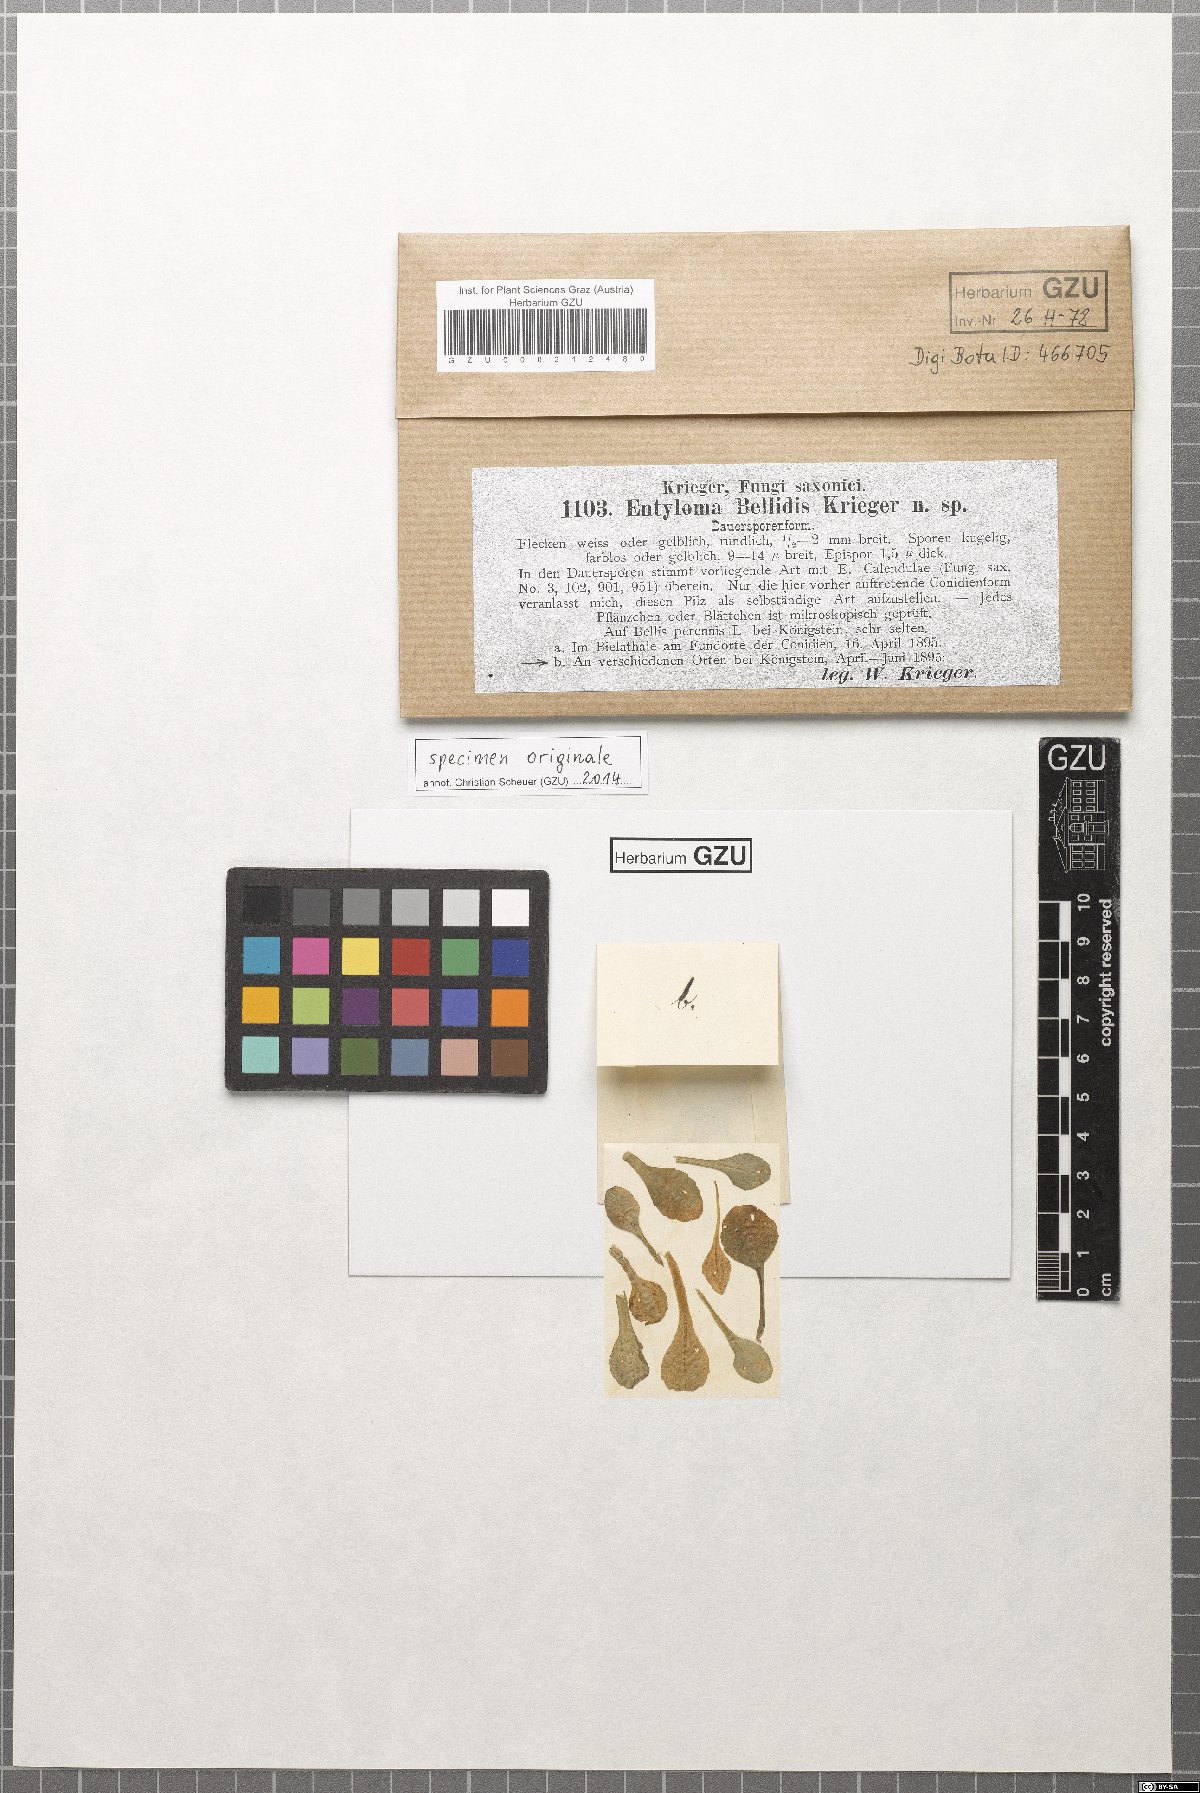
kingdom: Fungi
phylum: Basidiomycota
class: Exobasidiomycetes
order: Entylomatales
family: Entylomataceae
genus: Entyloma
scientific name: Entyloma bellidis
